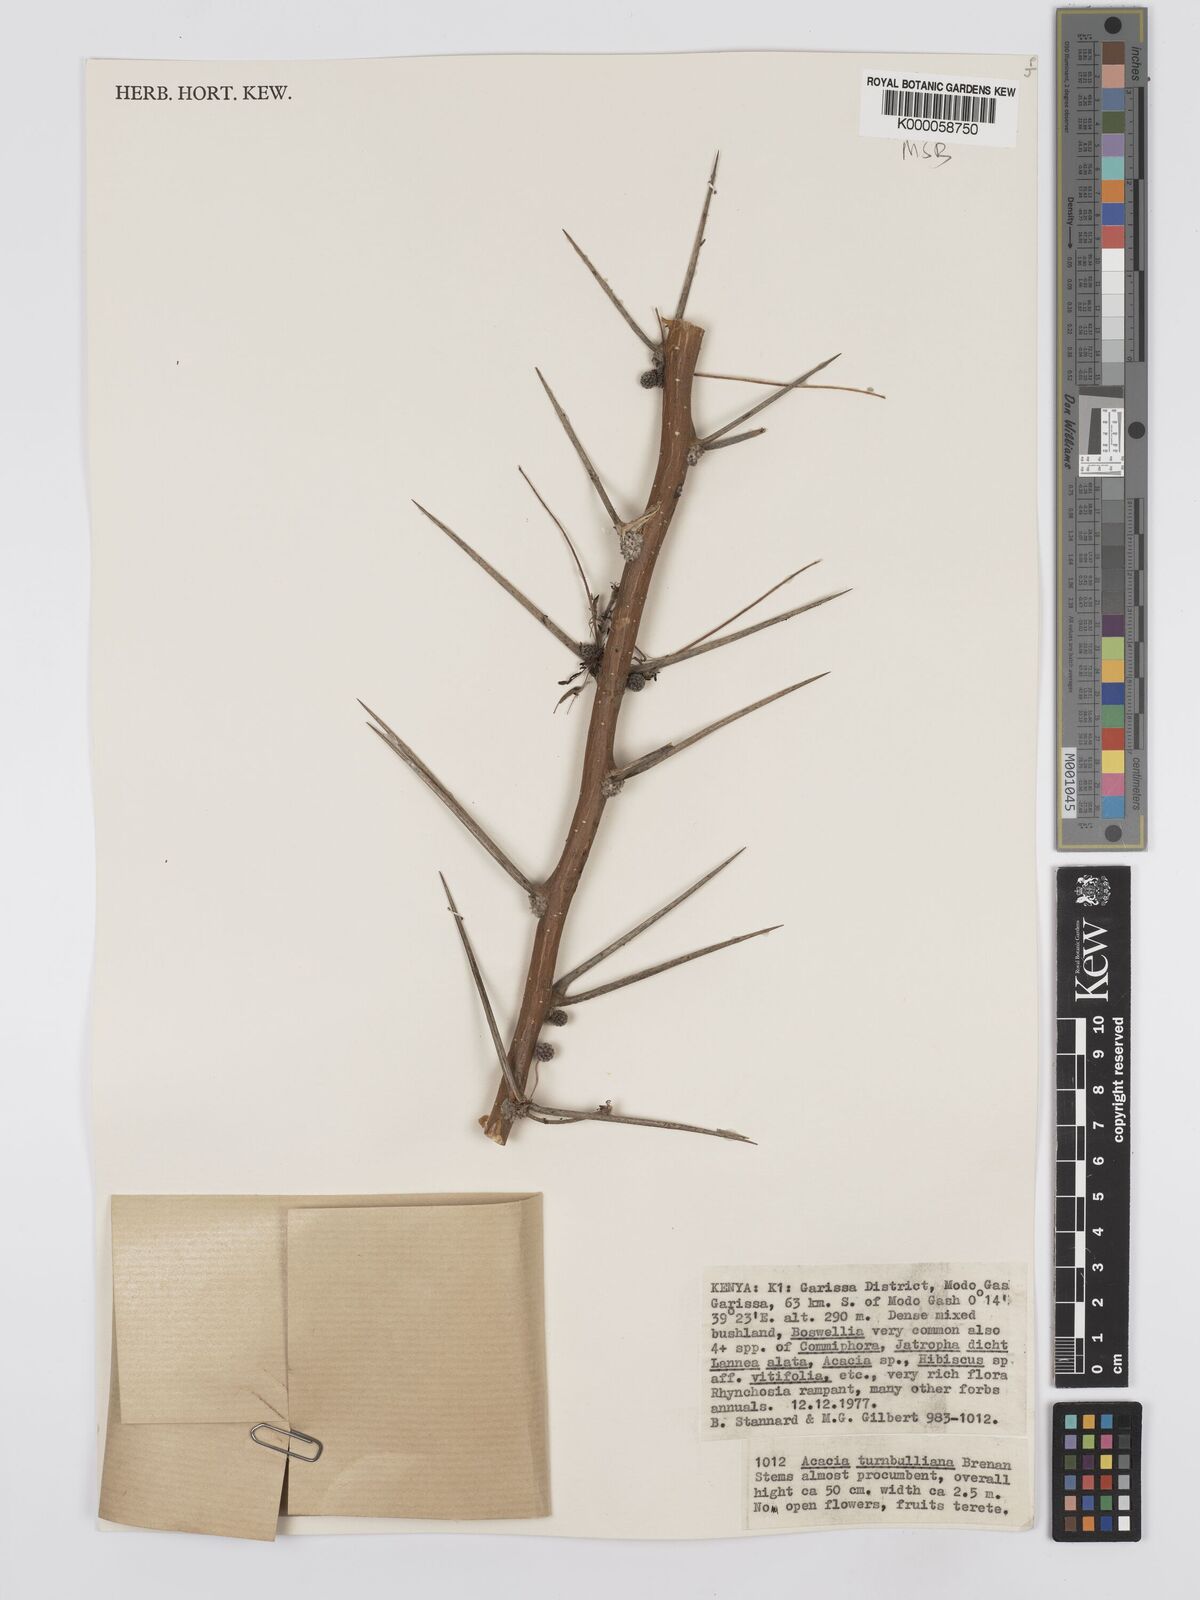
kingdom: Plantae
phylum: Tracheophyta
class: Magnoliopsida
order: Fabales
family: Fabaceae
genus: Vachellia
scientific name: Vachellia edgeworthii
